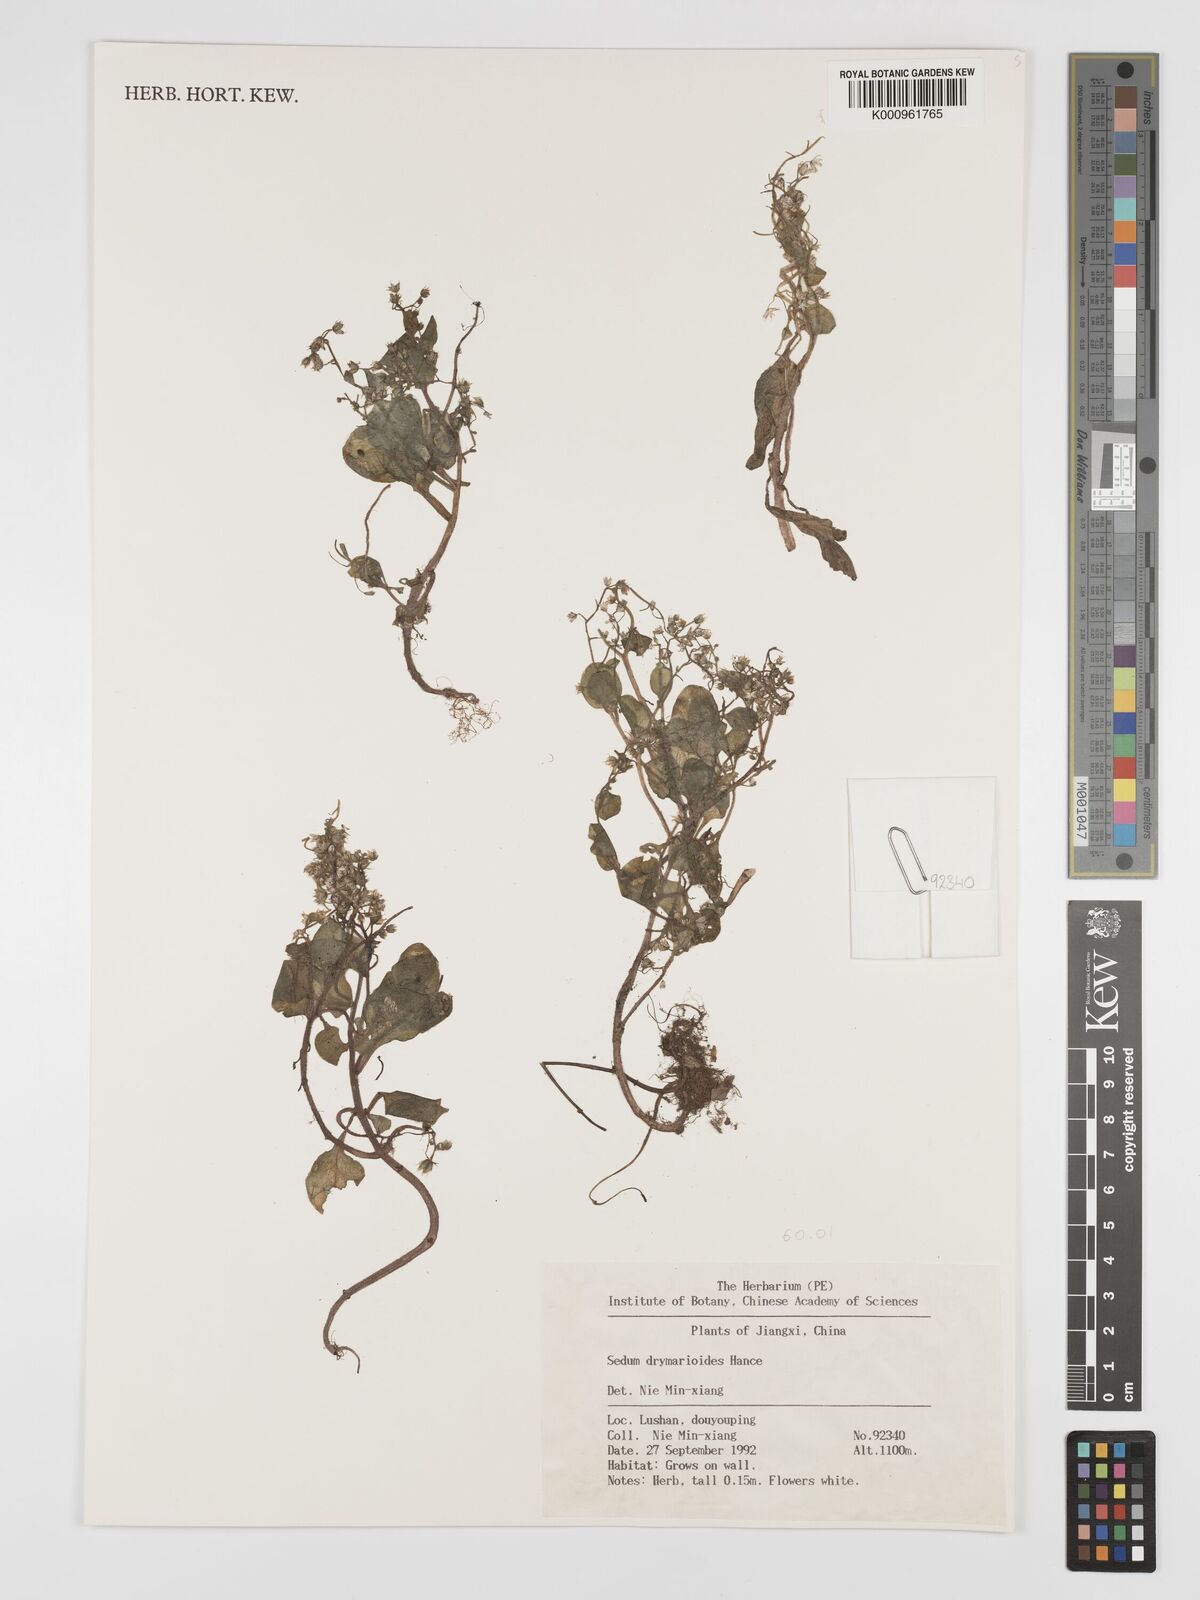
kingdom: Plantae
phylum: Tracheophyta
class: Magnoliopsida
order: Saxifragales
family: Crassulaceae
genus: Sedum
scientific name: Sedum drymarioides
